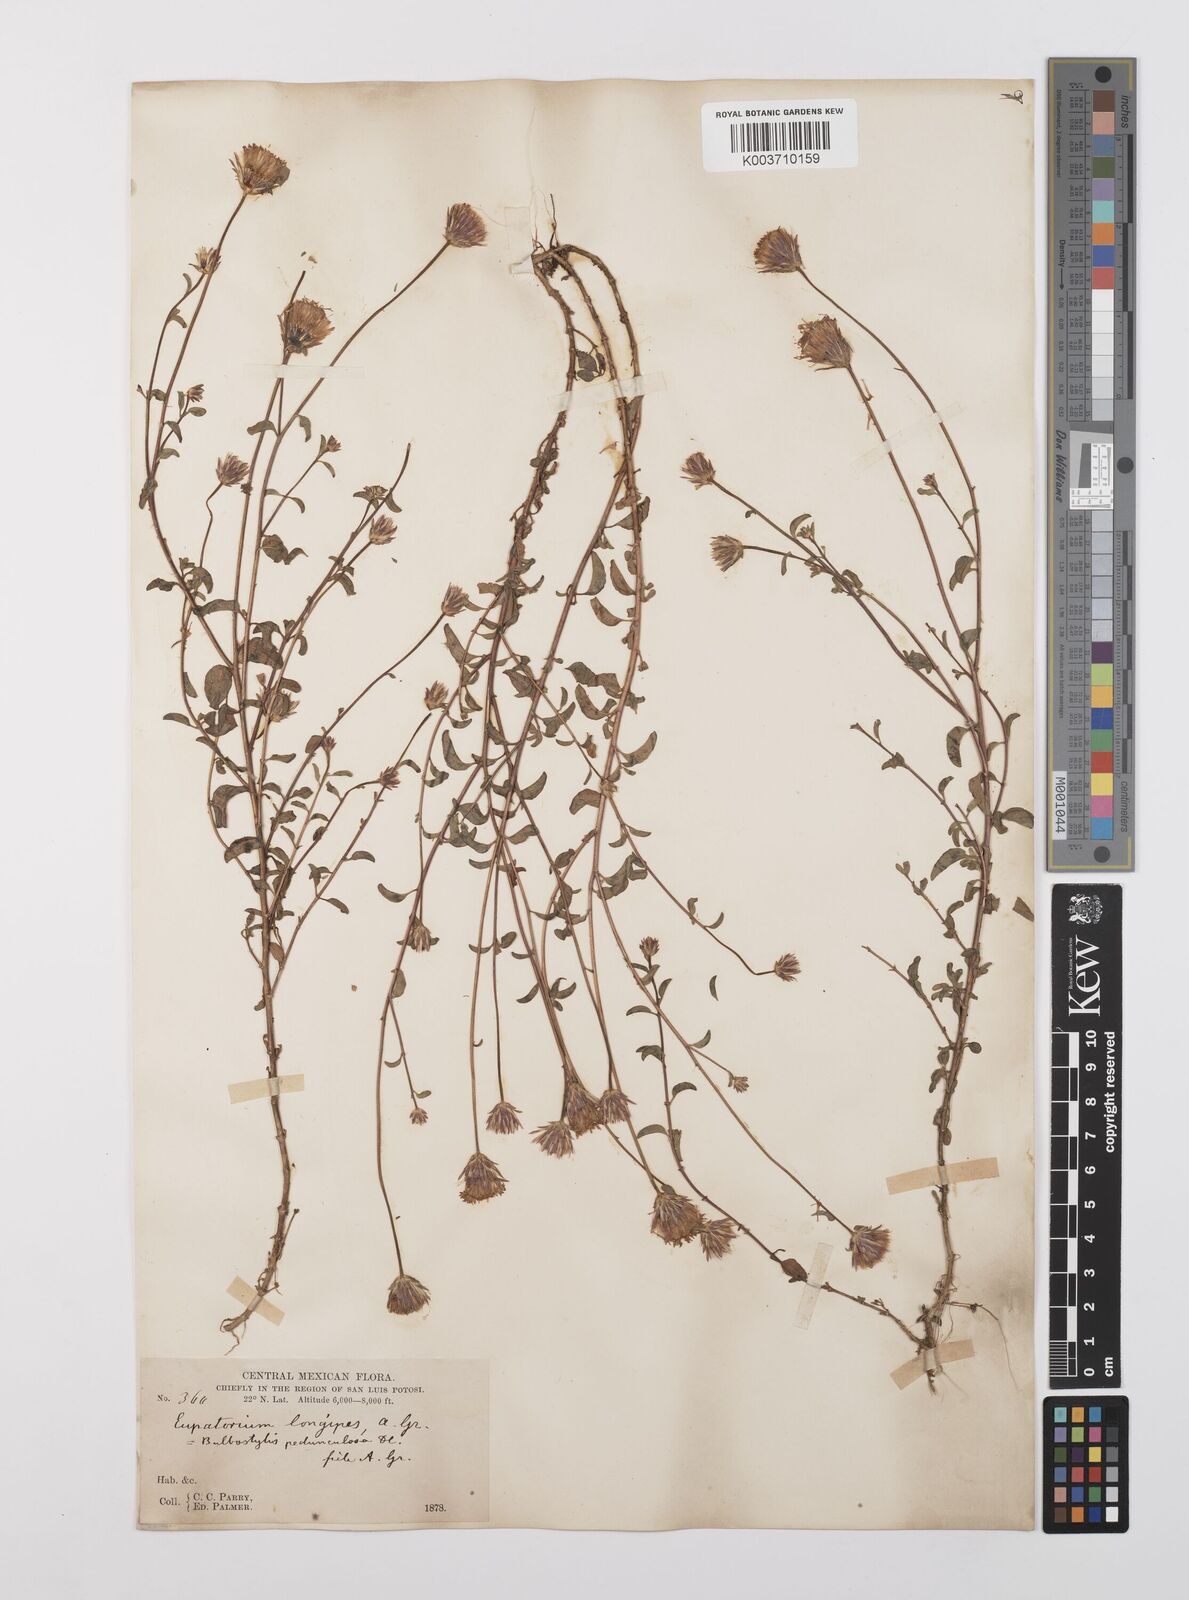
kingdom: Plantae
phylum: Tracheophyta
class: Magnoliopsida
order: Asterales
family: Asteraceae
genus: Brickellia
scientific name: Brickellia pedunculosa
